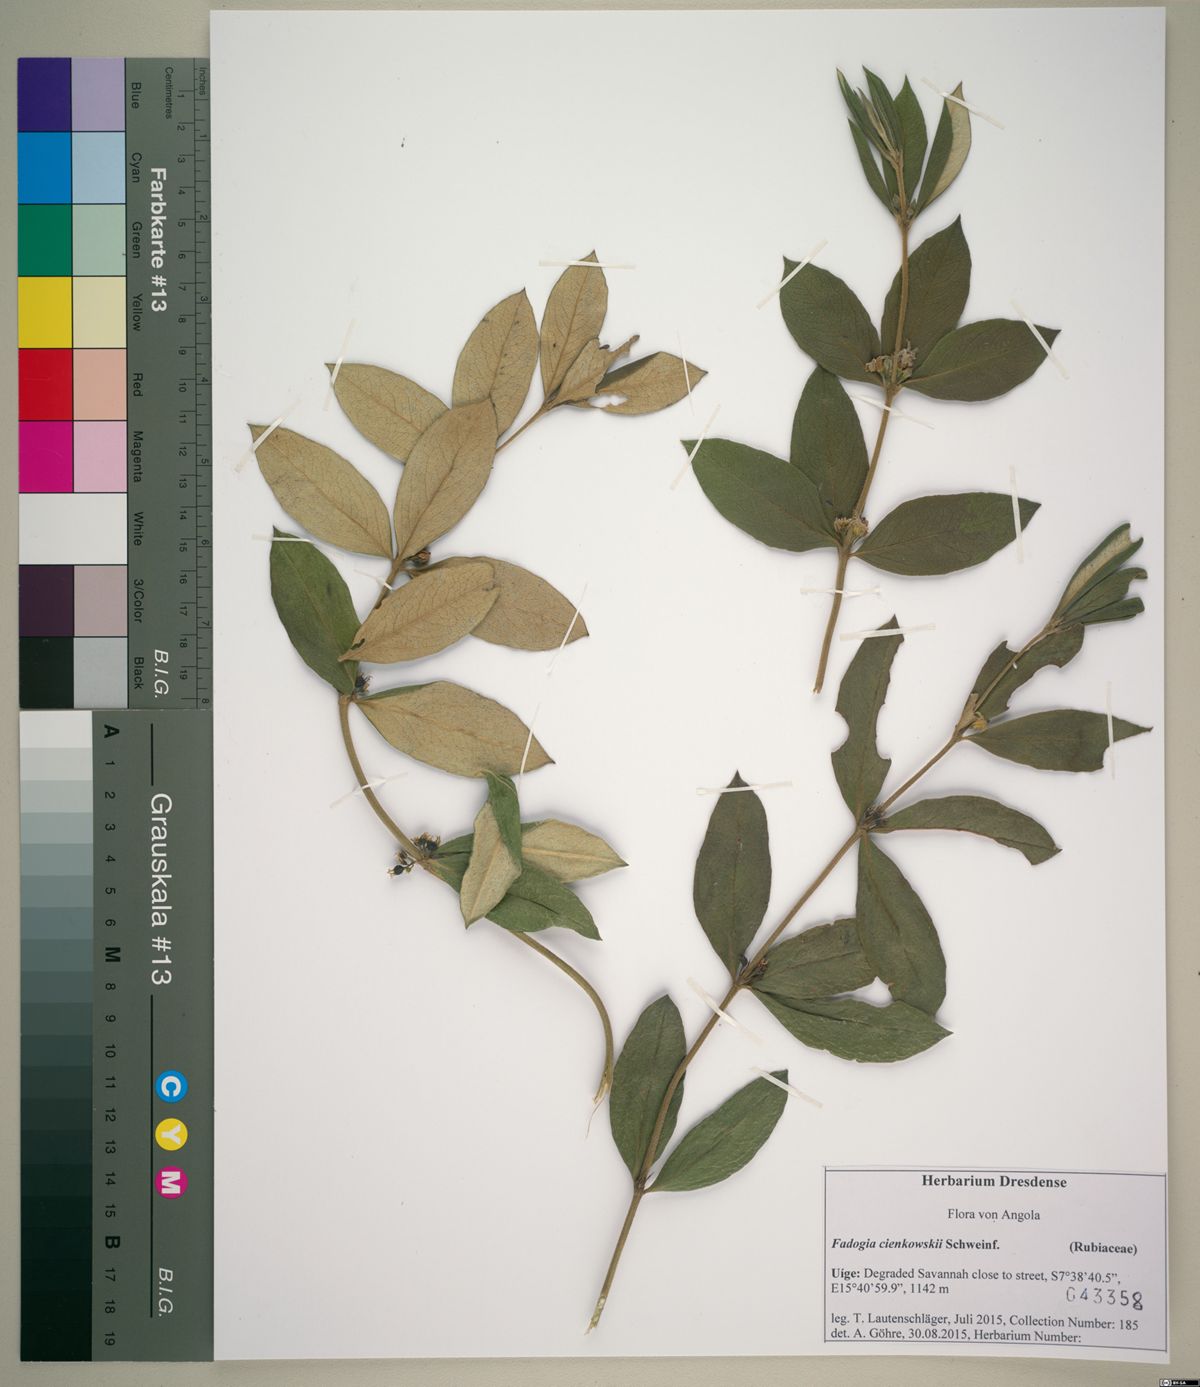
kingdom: Plantae
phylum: Tracheophyta
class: Magnoliopsida
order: Gentianales
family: Rubiaceae
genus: Fadogia
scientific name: Fadogia cienkowskii
